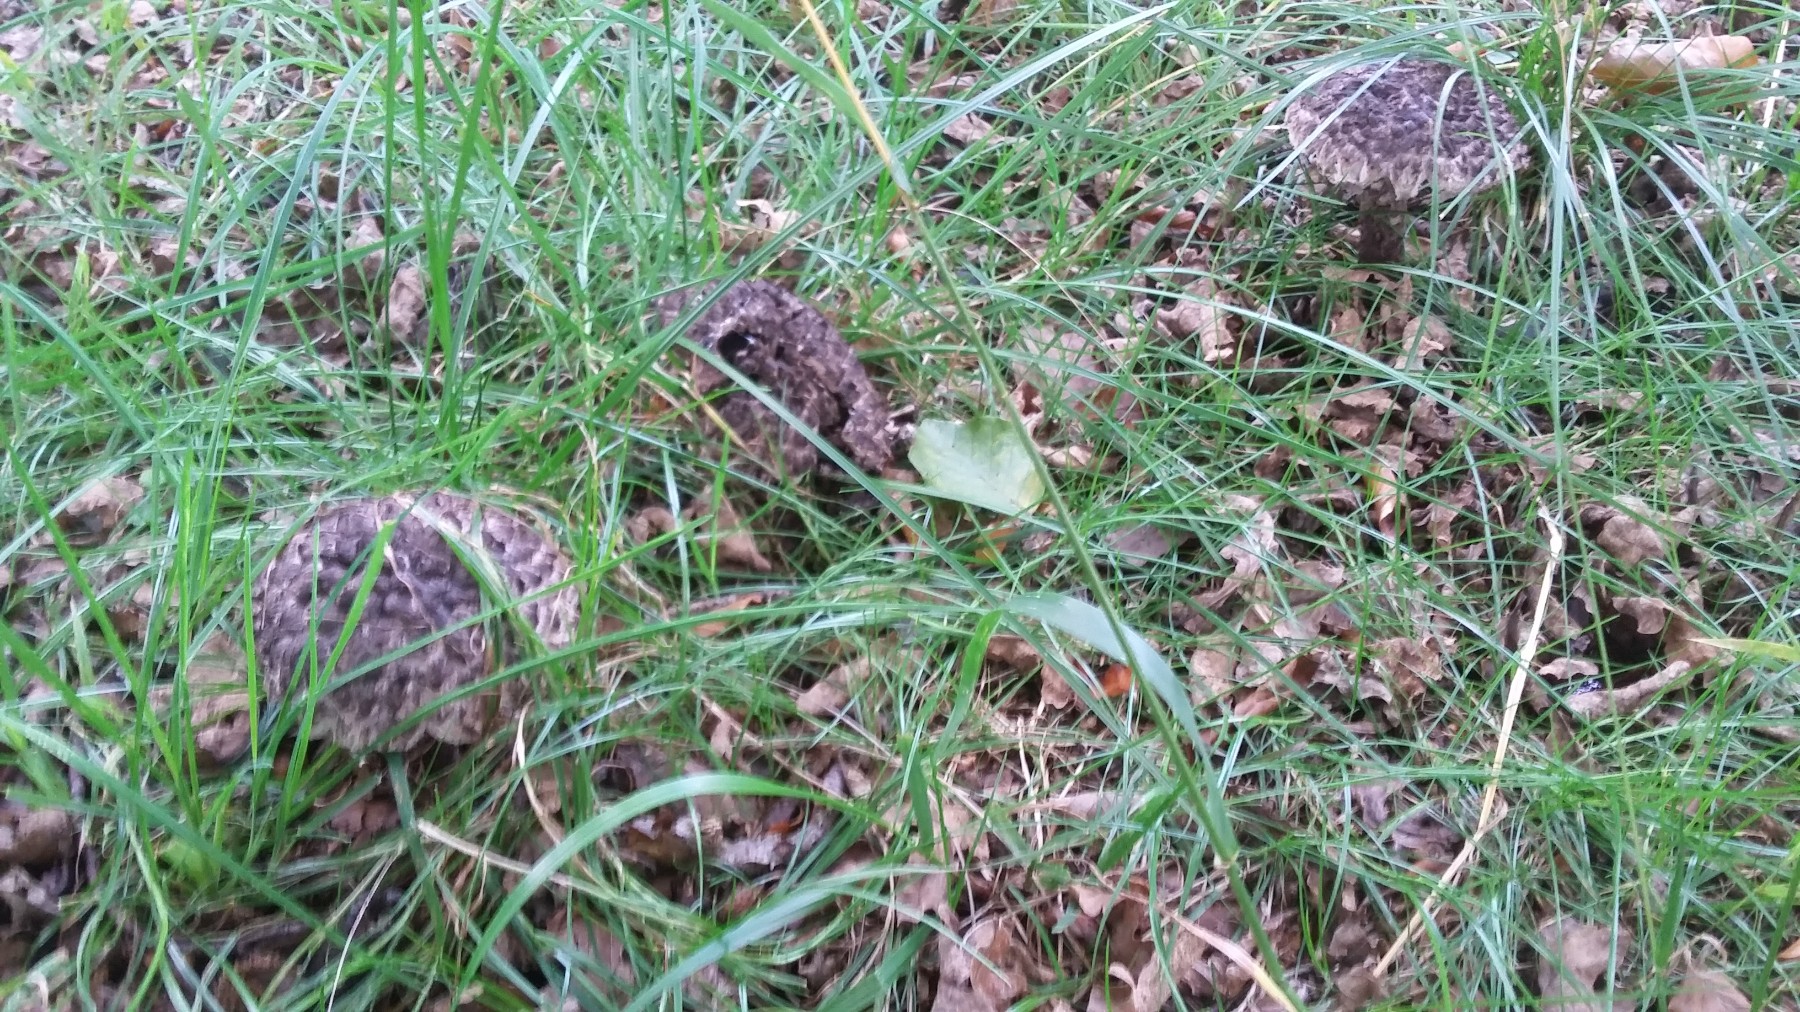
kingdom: Fungi
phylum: Basidiomycota
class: Agaricomycetes
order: Boletales
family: Boletaceae
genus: Strobilomyces
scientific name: Strobilomyces strobilaceus
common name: koglerørhat
